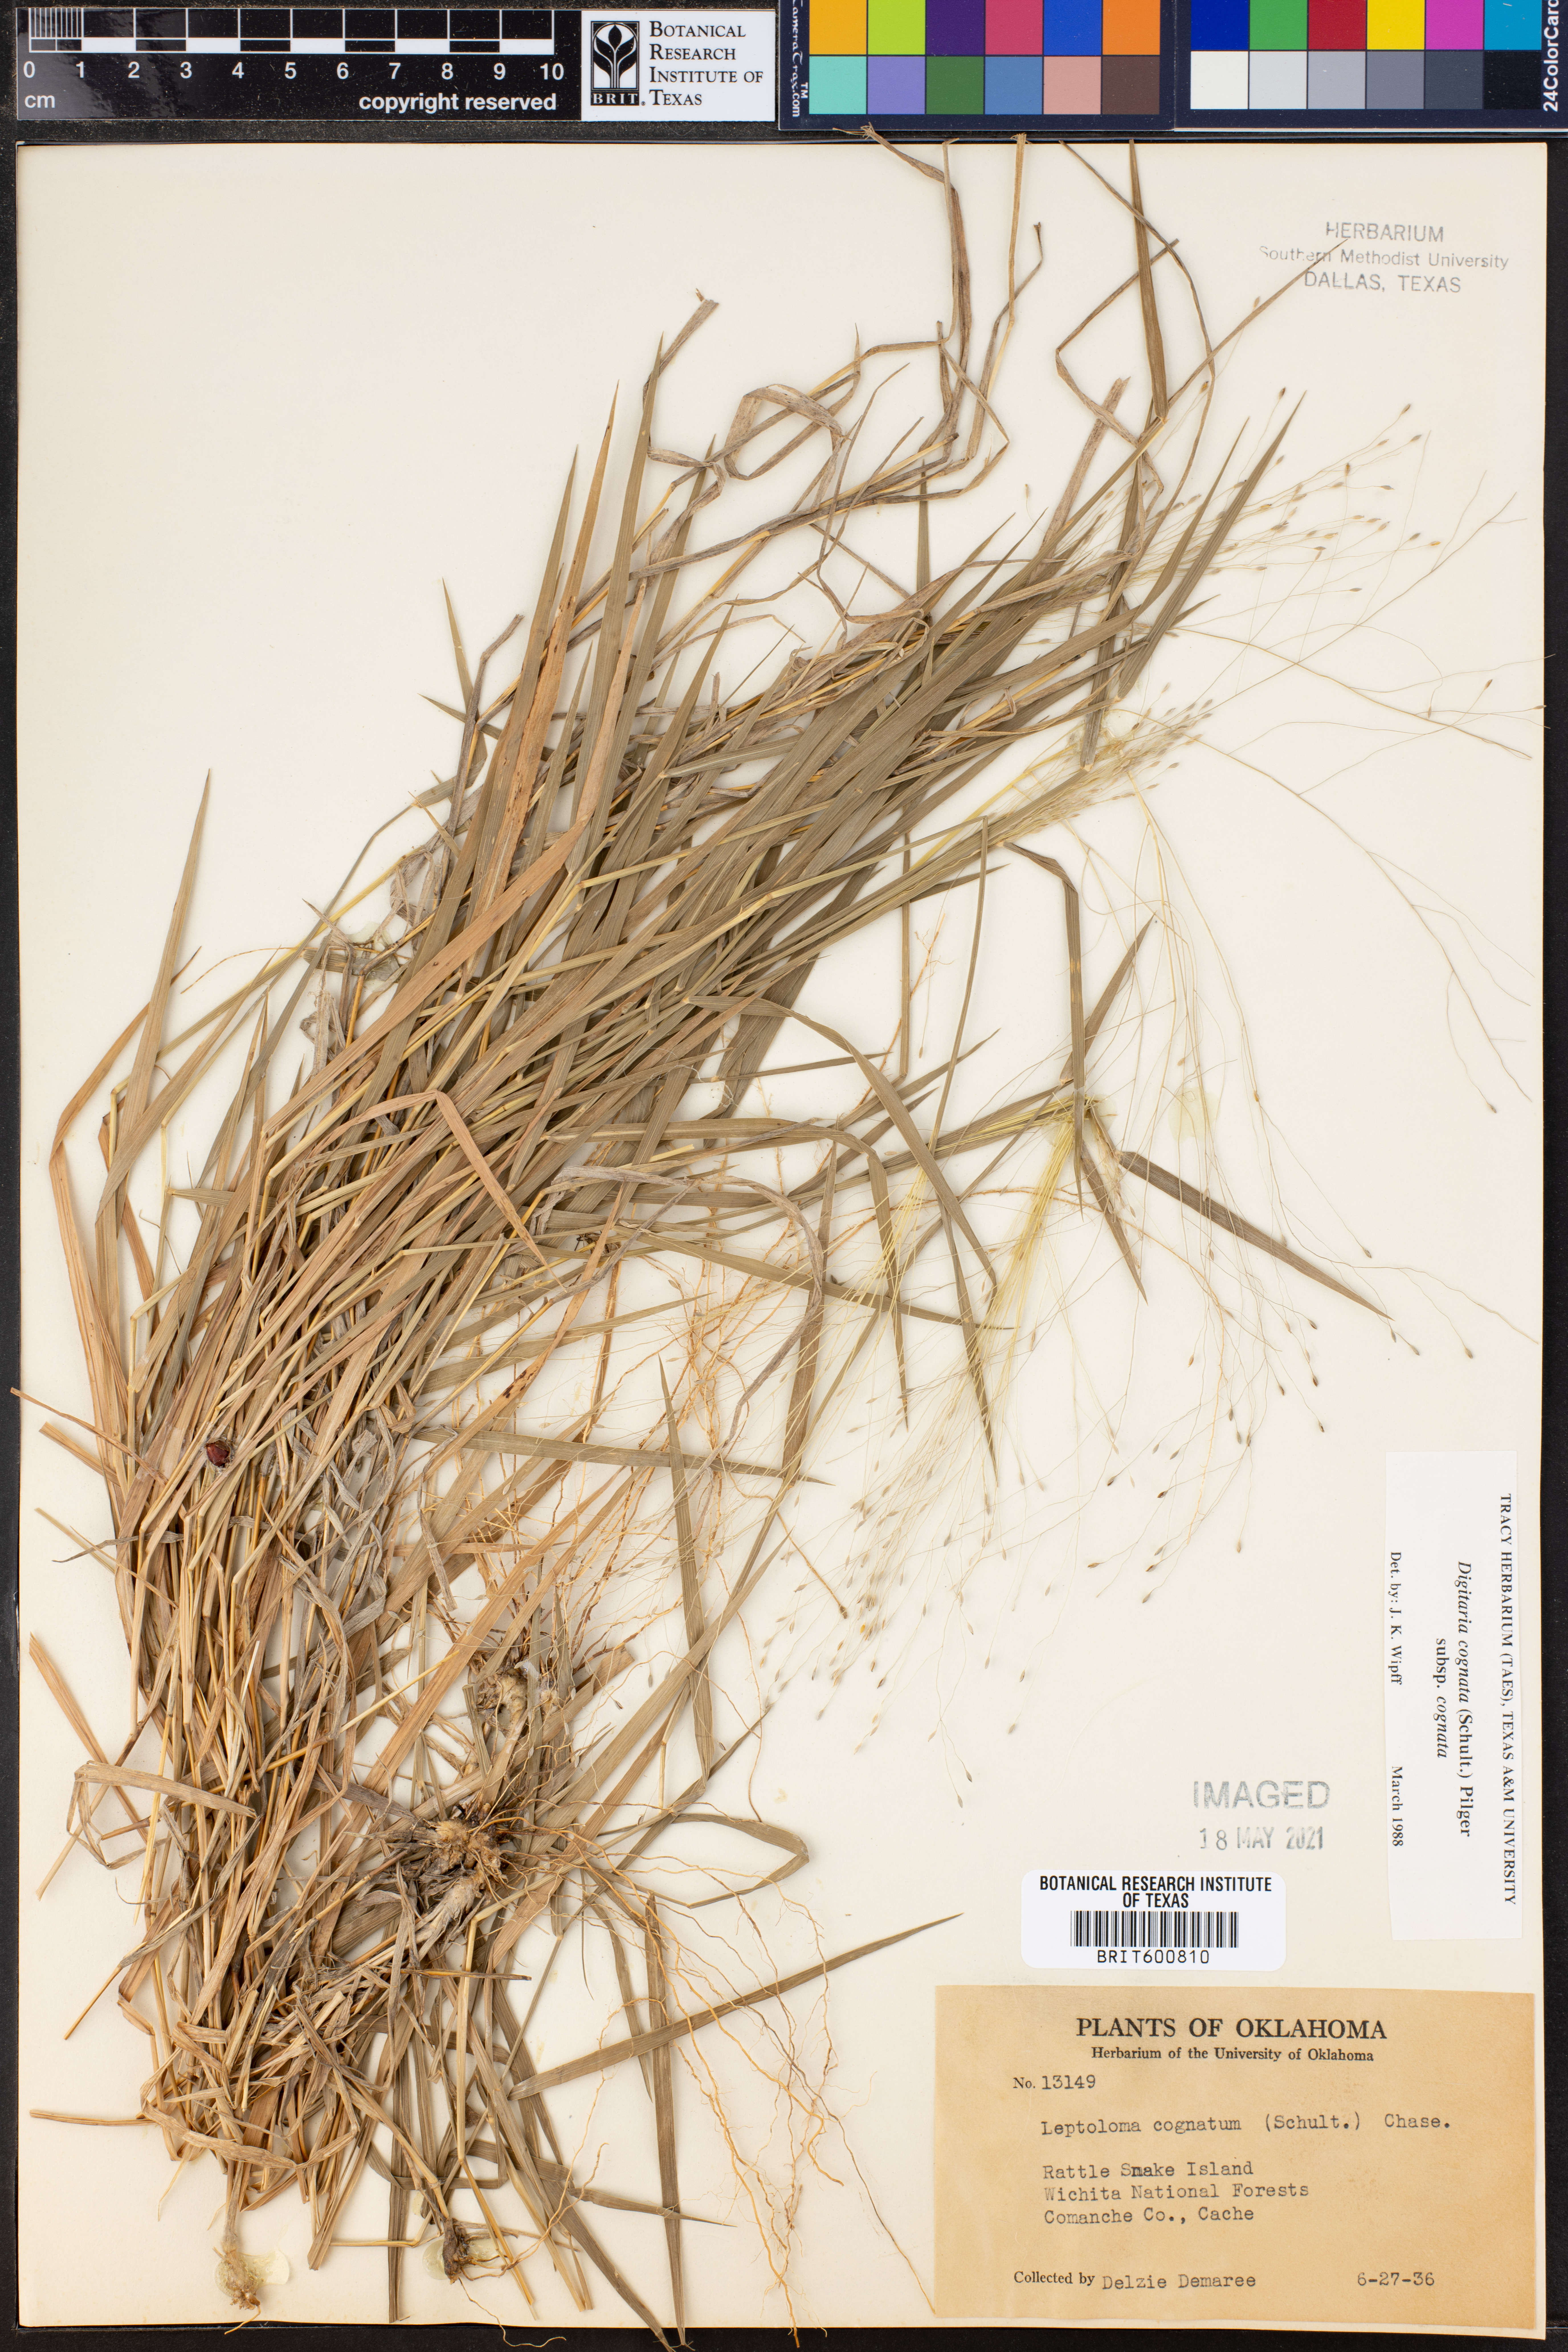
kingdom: Plantae
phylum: Tracheophyta
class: Liliopsida
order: Poales
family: Poaceae
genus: Digitaria
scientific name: Digitaria cognata
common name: Fall witchgrass
